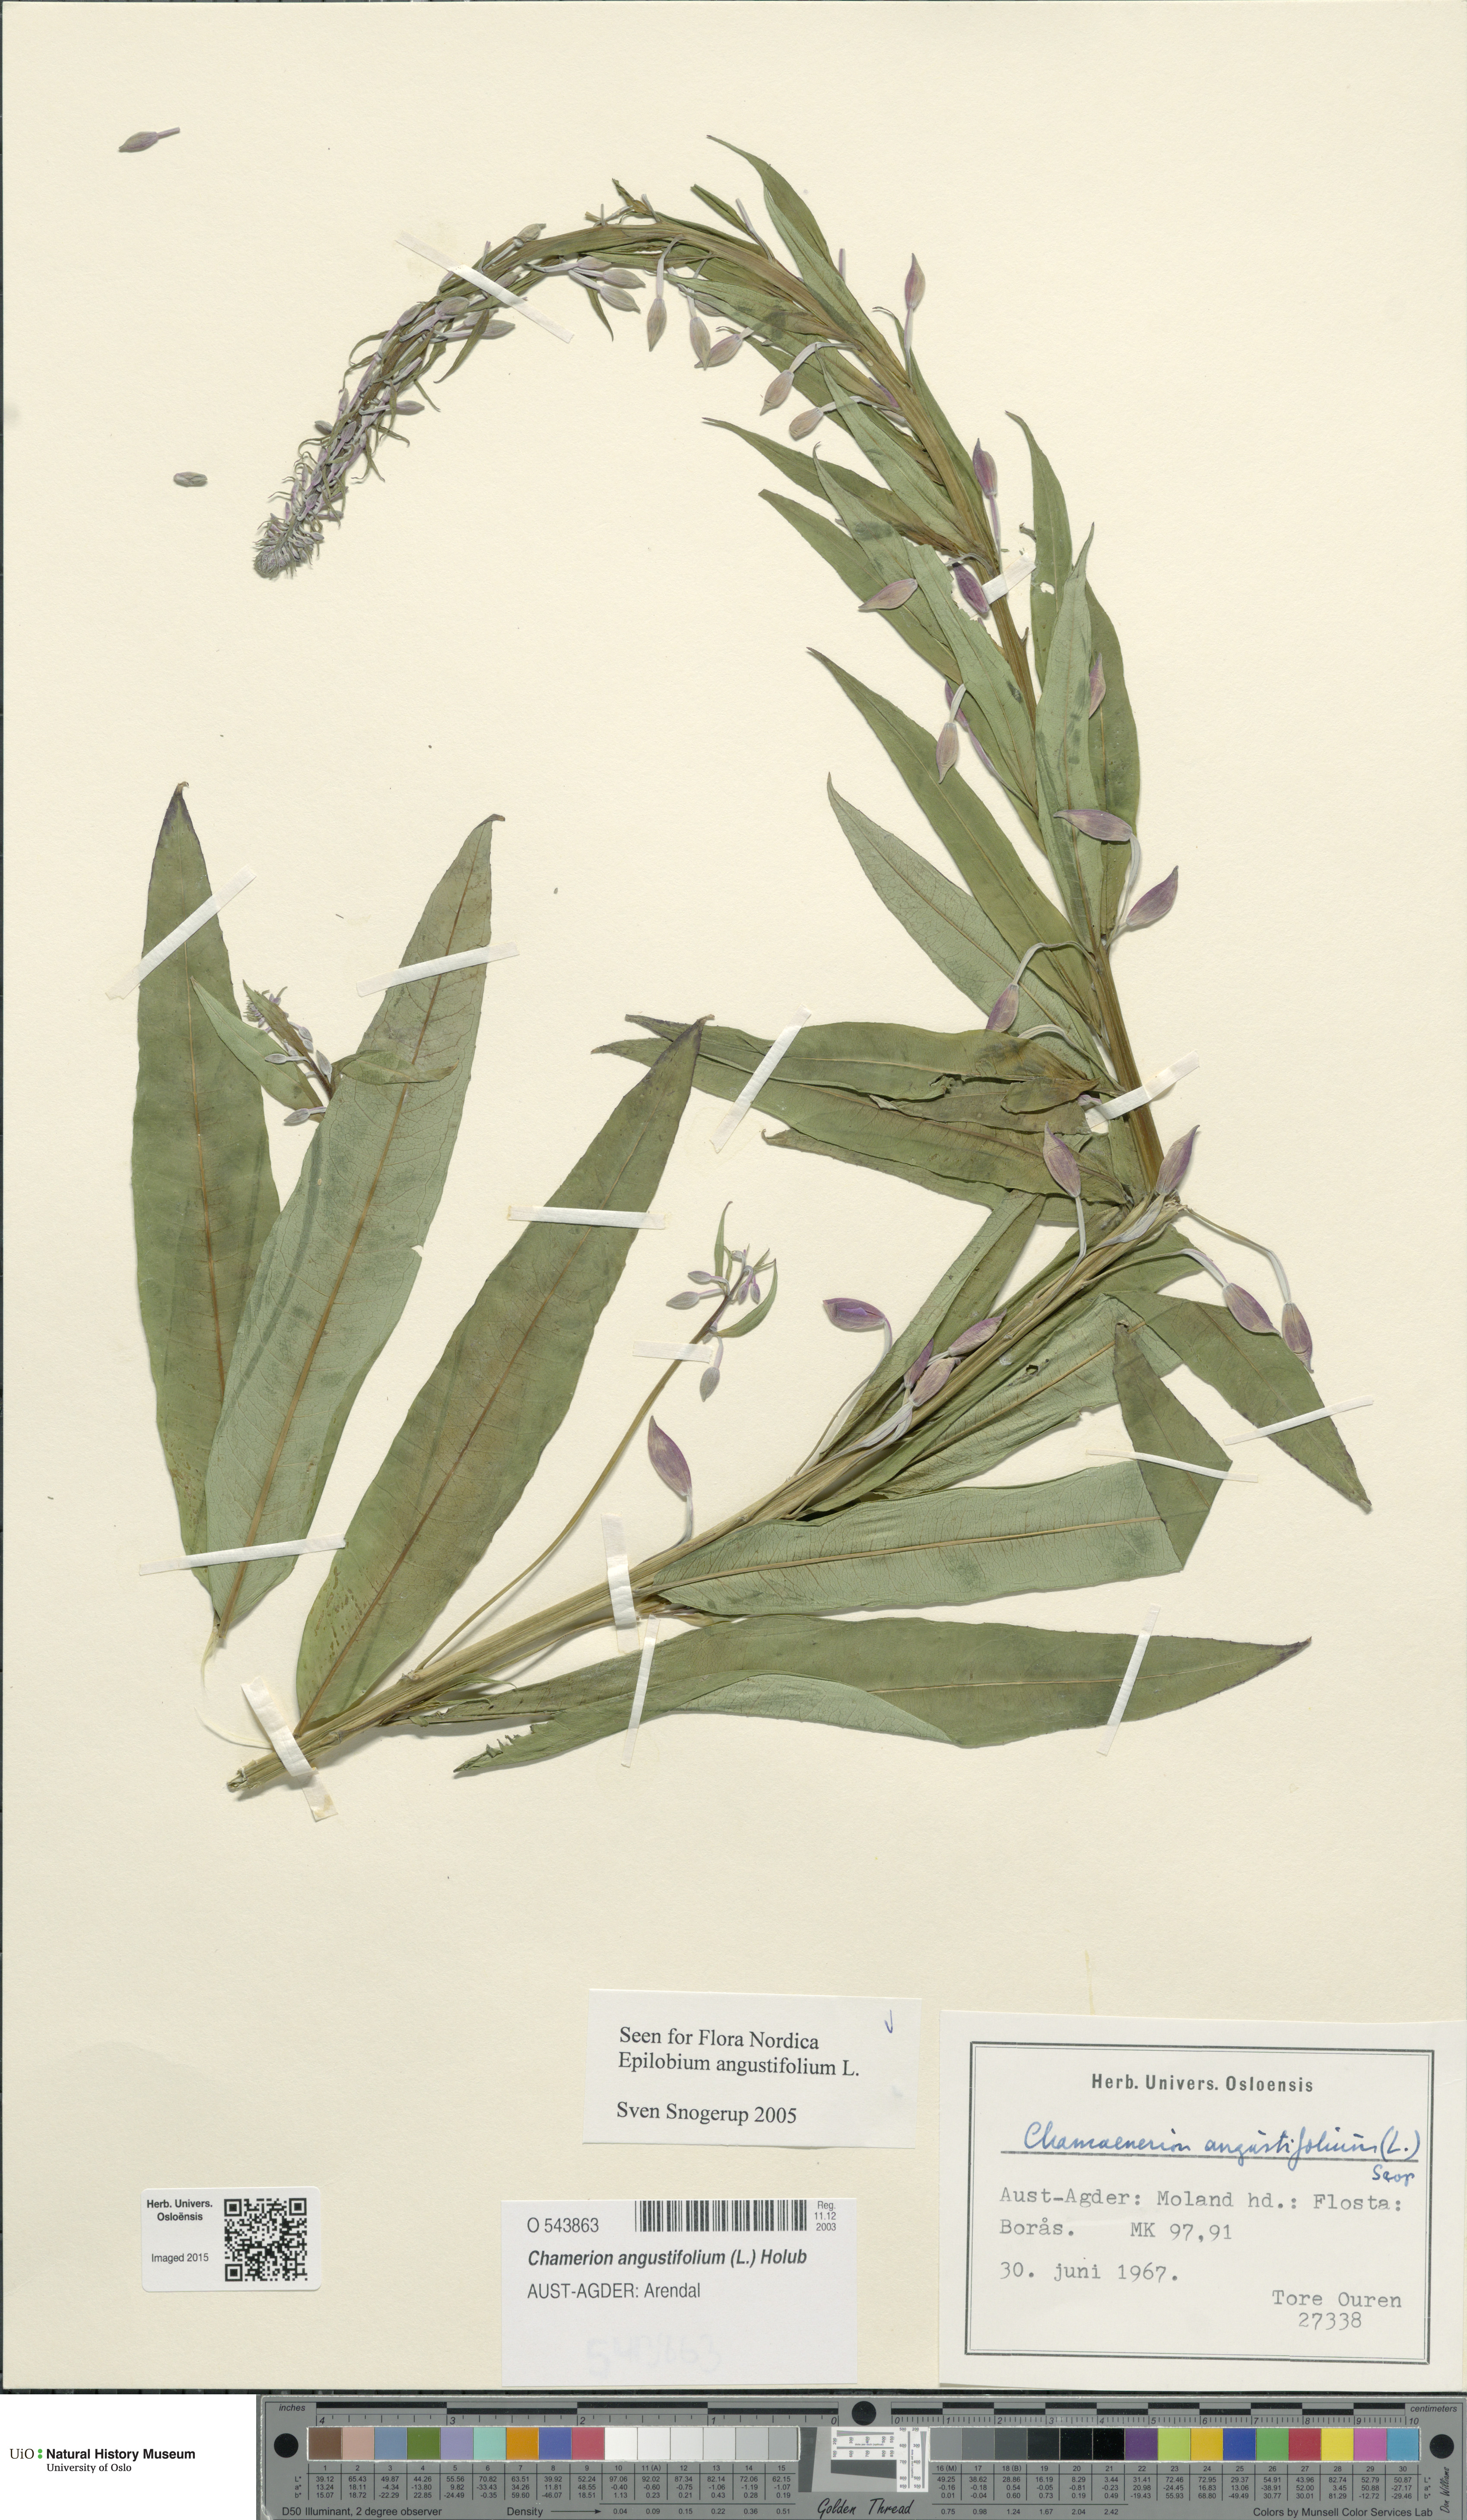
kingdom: Plantae
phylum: Tracheophyta
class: Magnoliopsida
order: Myrtales
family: Onagraceae
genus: Chamaenerion
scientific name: Chamaenerion angustifolium
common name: Fireweed
